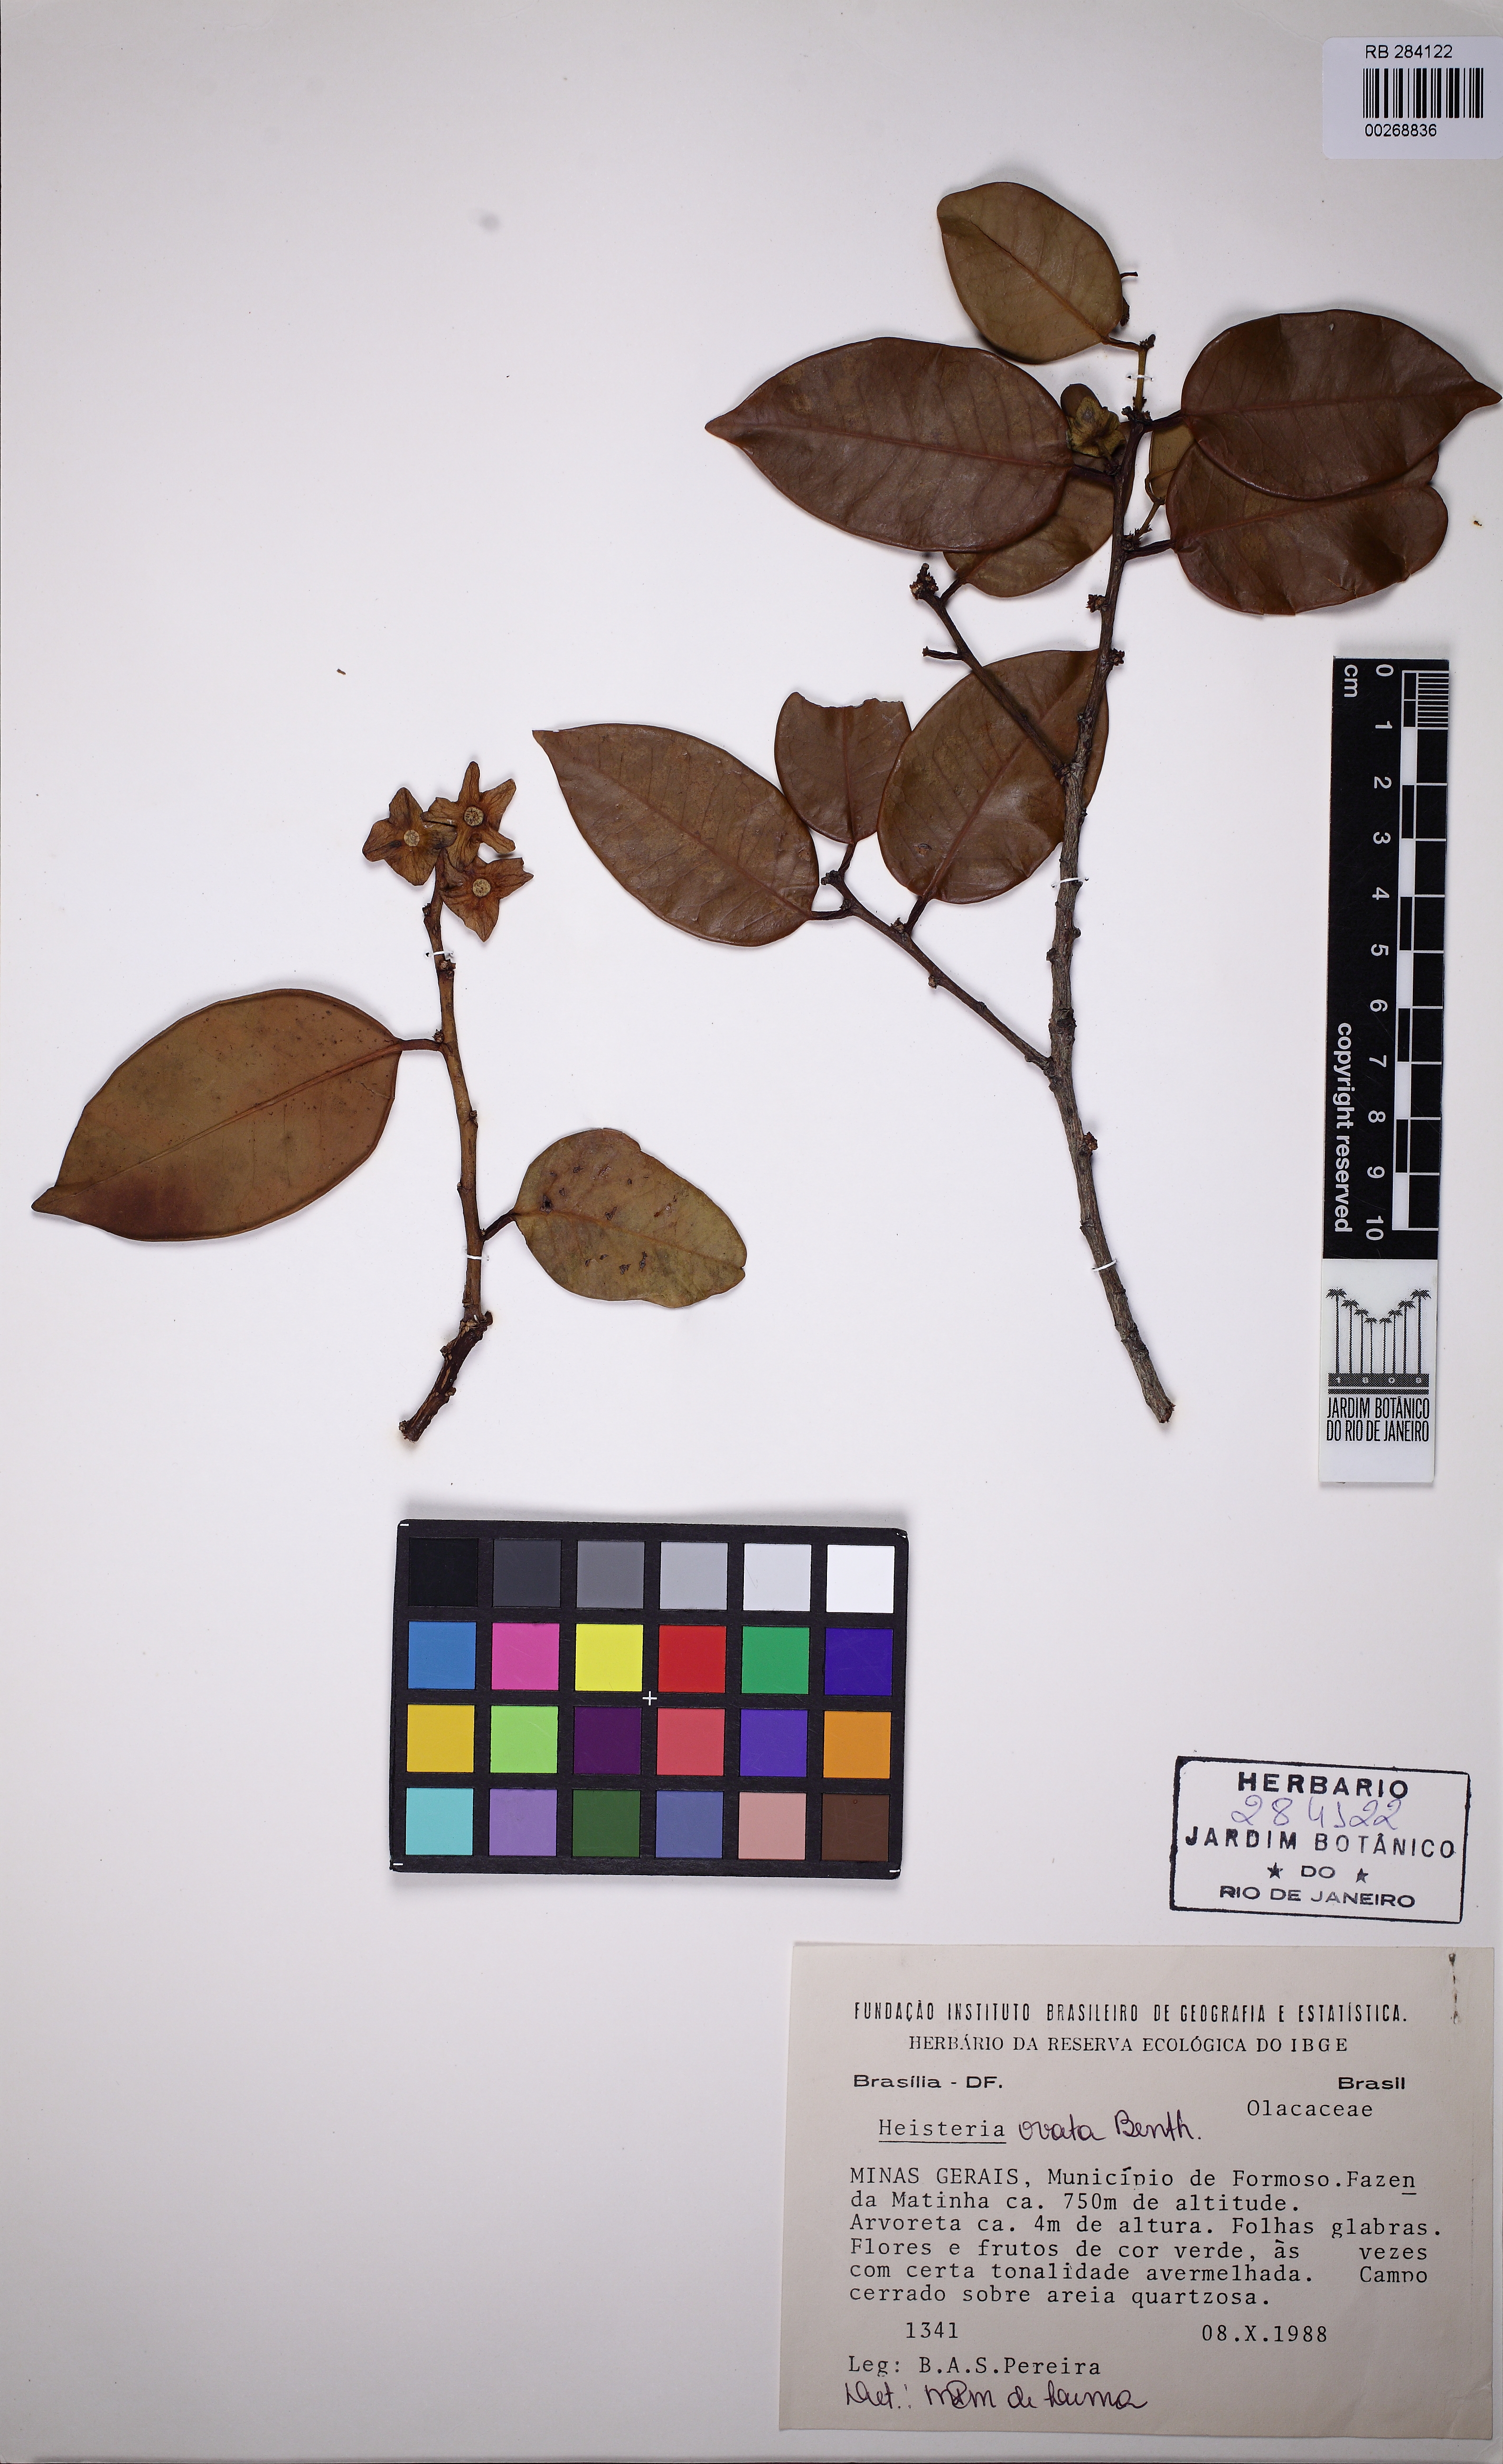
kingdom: Plantae
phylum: Tracheophyta
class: Magnoliopsida
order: Santalales
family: Erythropalaceae
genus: Heisteria
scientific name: Heisteria ovata
